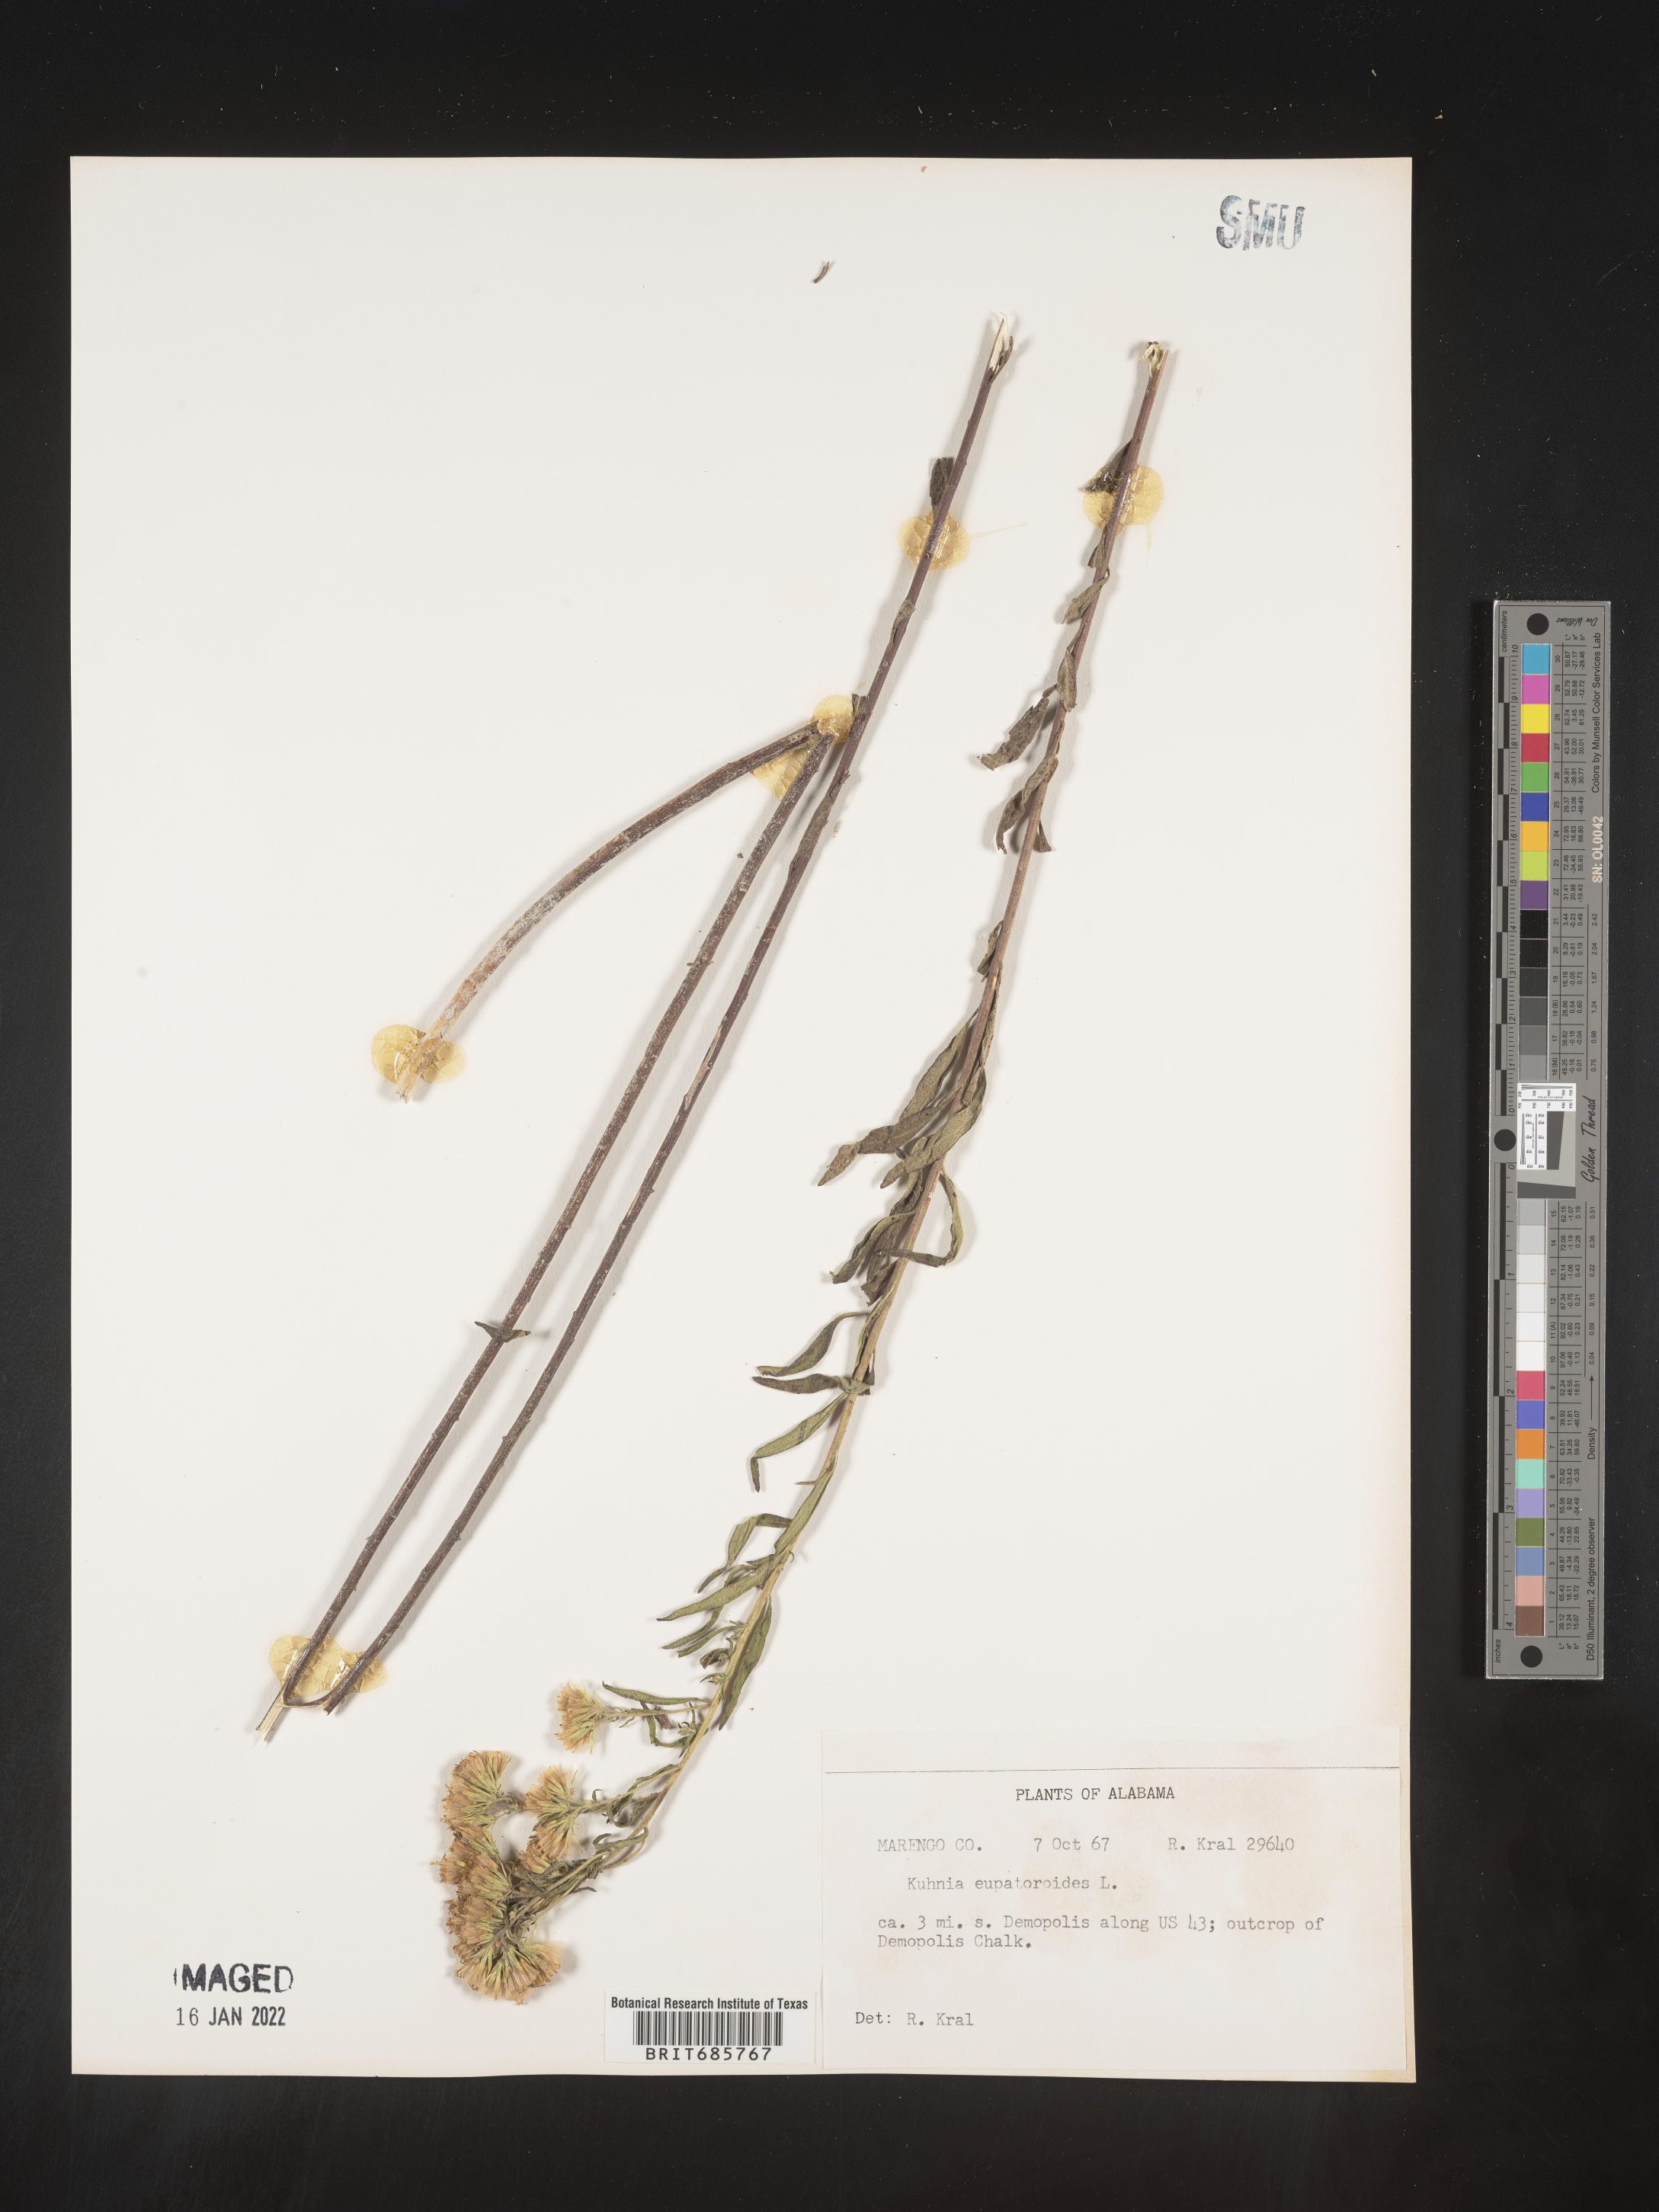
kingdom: Plantae
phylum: Tracheophyta
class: Magnoliopsida
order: Asterales
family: Asteraceae
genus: Brickellia
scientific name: Brickellia eupatorioides
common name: False boneset
